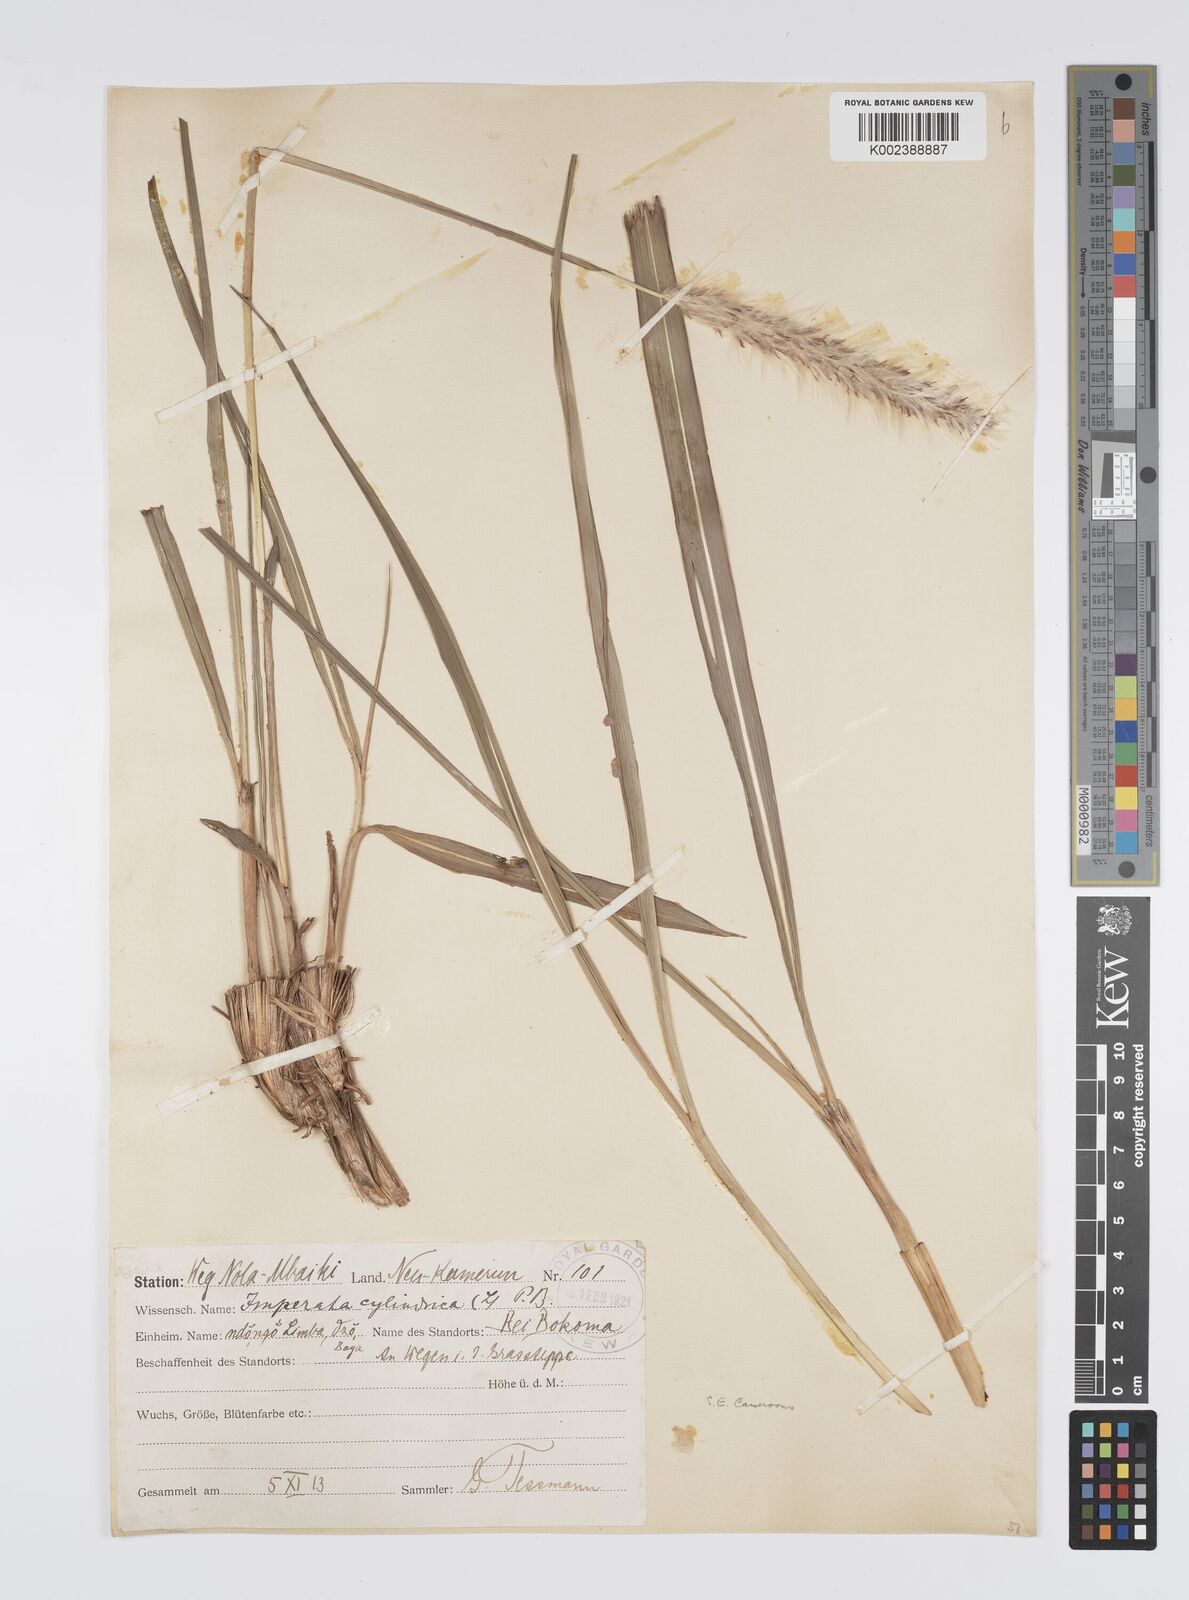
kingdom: Plantae
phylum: Tracheophyta
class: Liliopsida
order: Poales
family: Poaceae
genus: Imperata
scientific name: Imperata cylindrica
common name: Cogongrass
